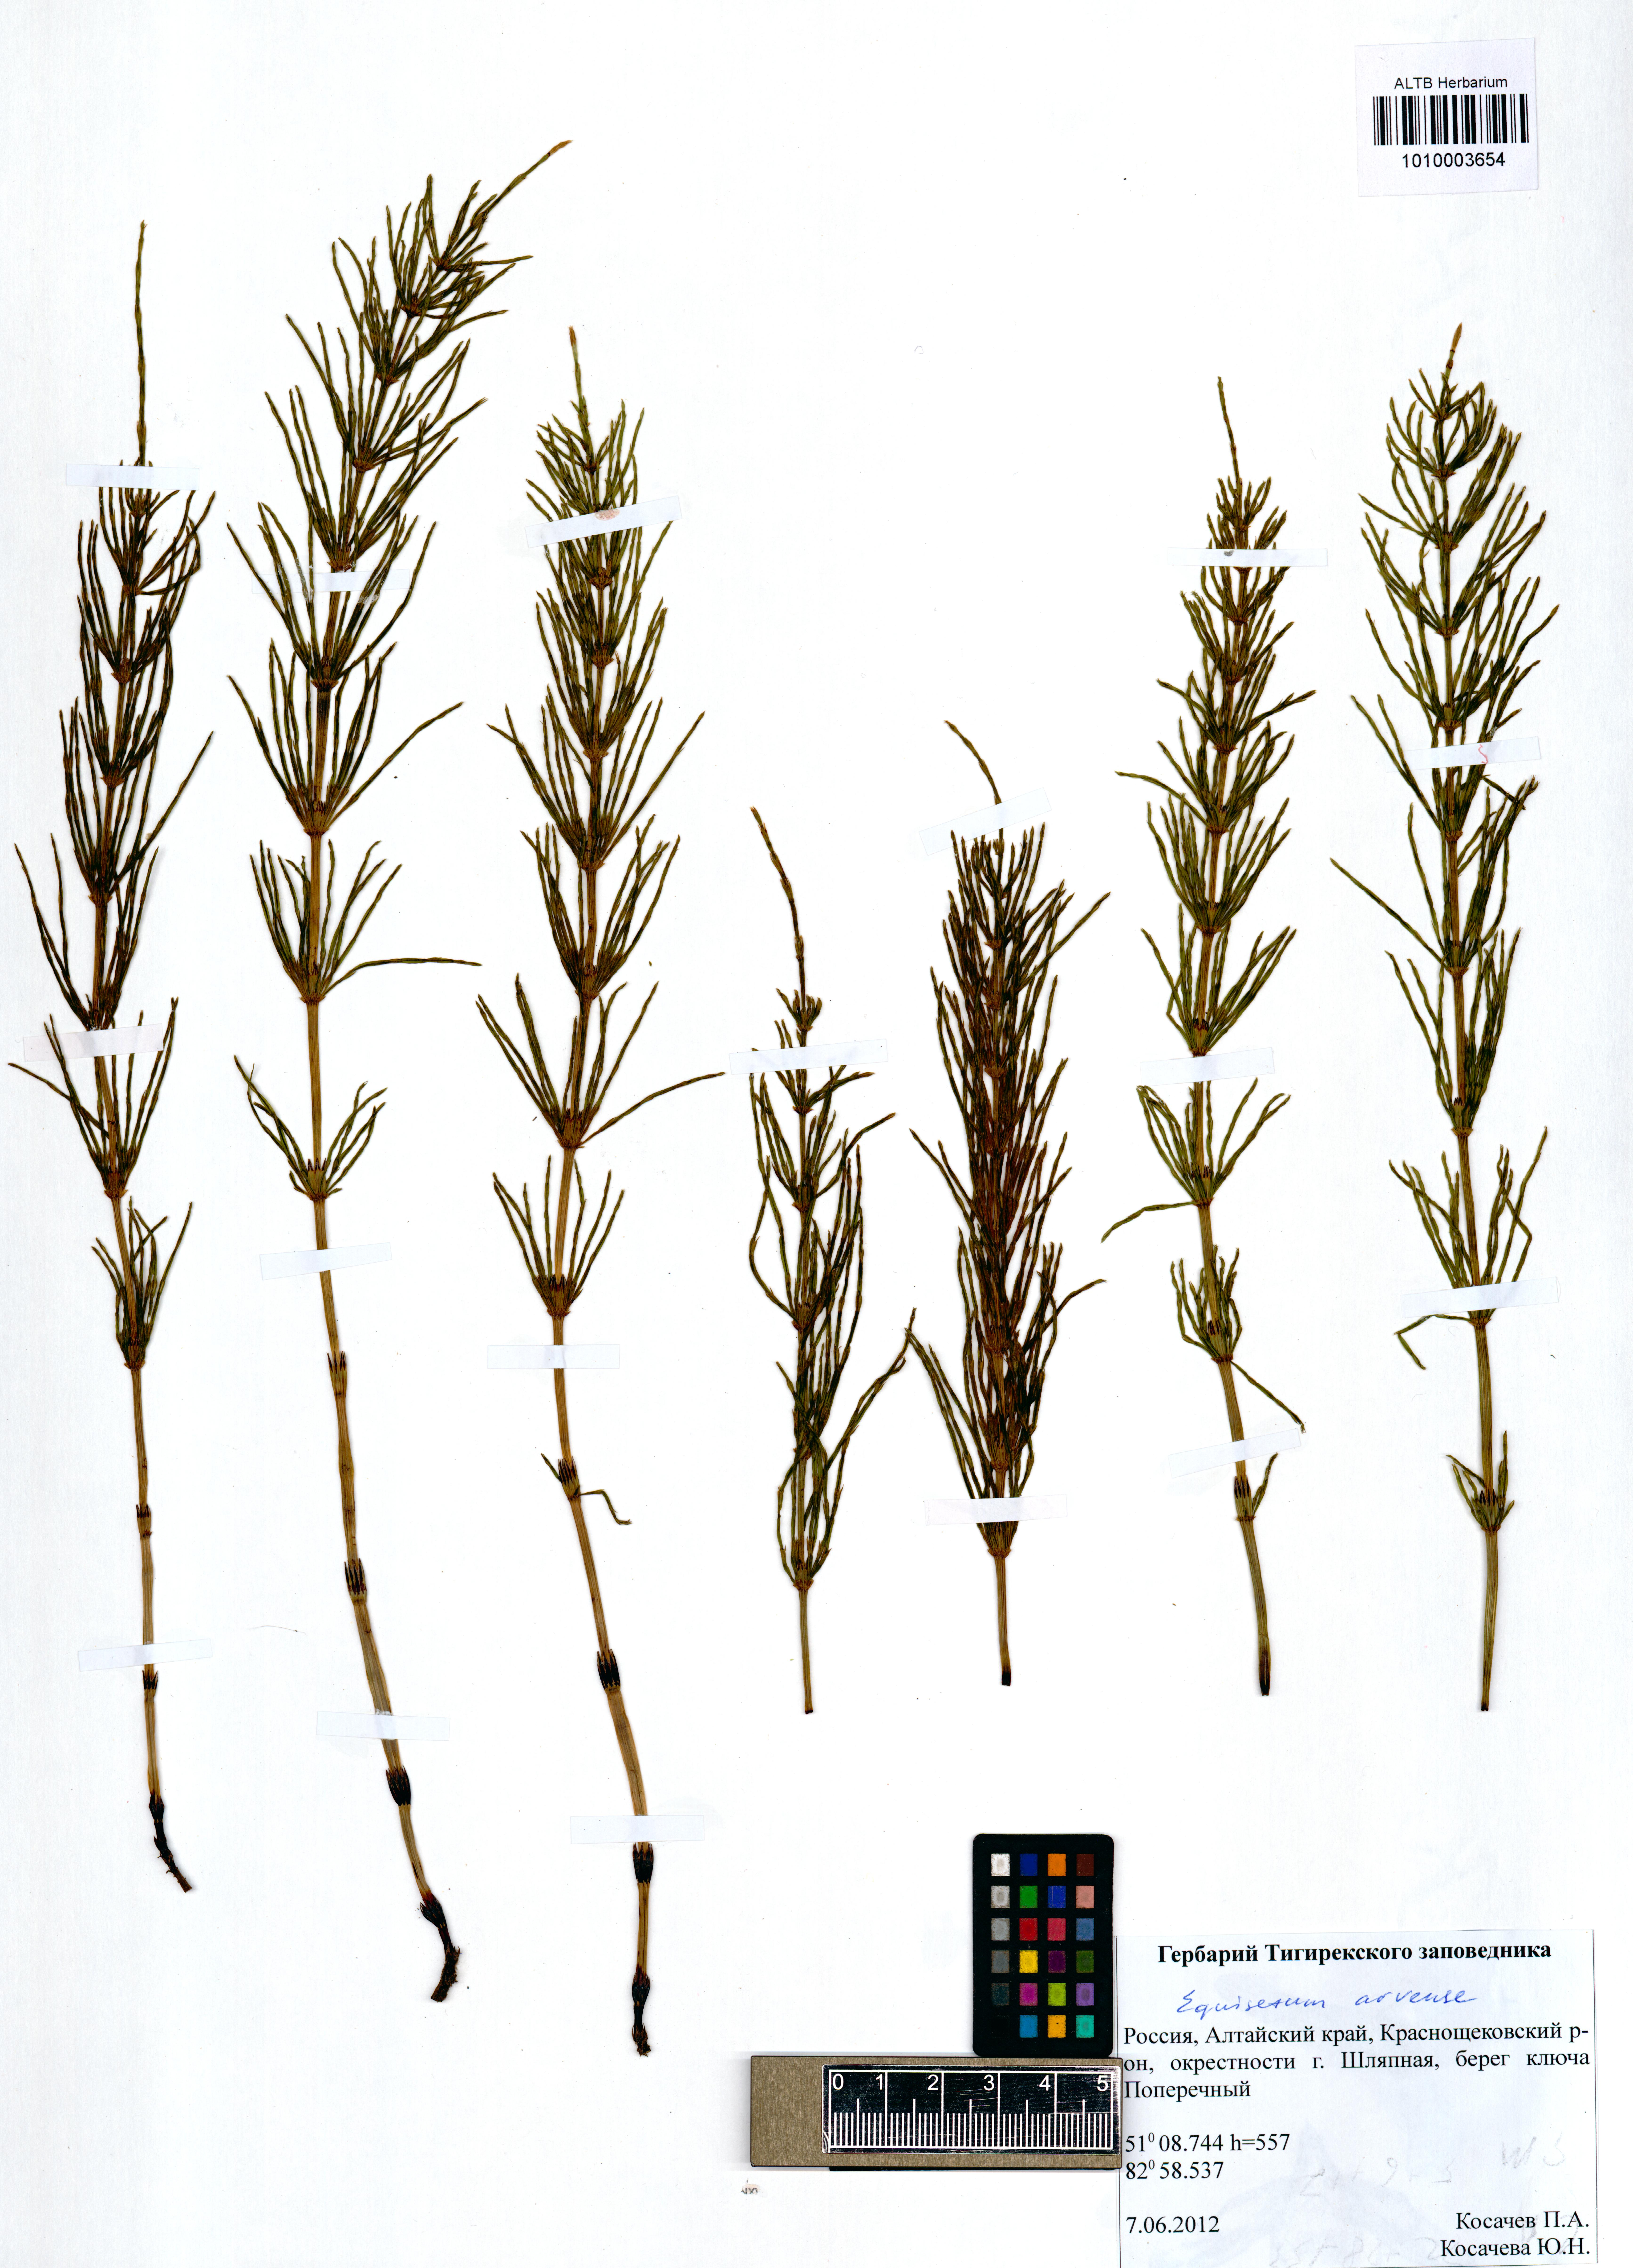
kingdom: Plantae
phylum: Tracheophyta
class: Polypodiopsida
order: Equisetales
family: Equisetaceae
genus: Equisetum
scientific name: Equisetum arvense
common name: Field horsetail
